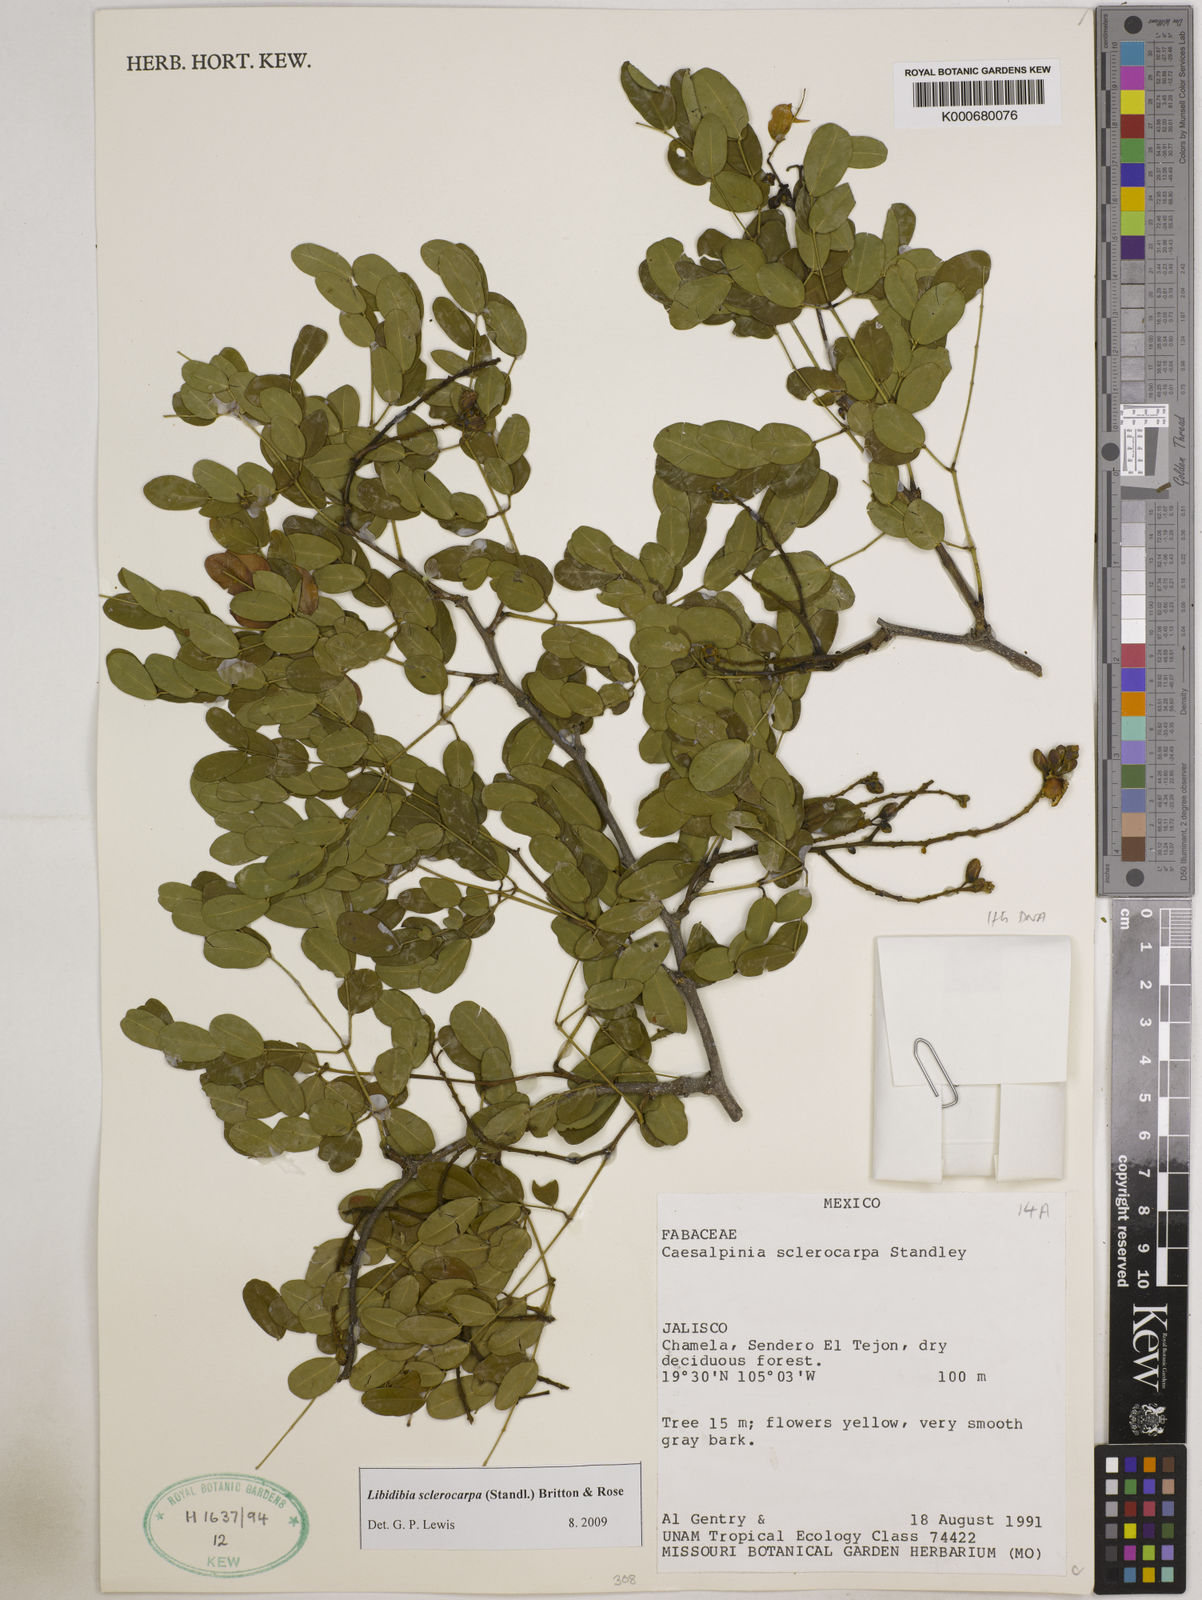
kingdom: Plantae
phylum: Tracheophyta
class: Magnoliopsida
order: Fabales
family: Fabaceae
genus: Libidibia
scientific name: Libidibia sclerocarpa
